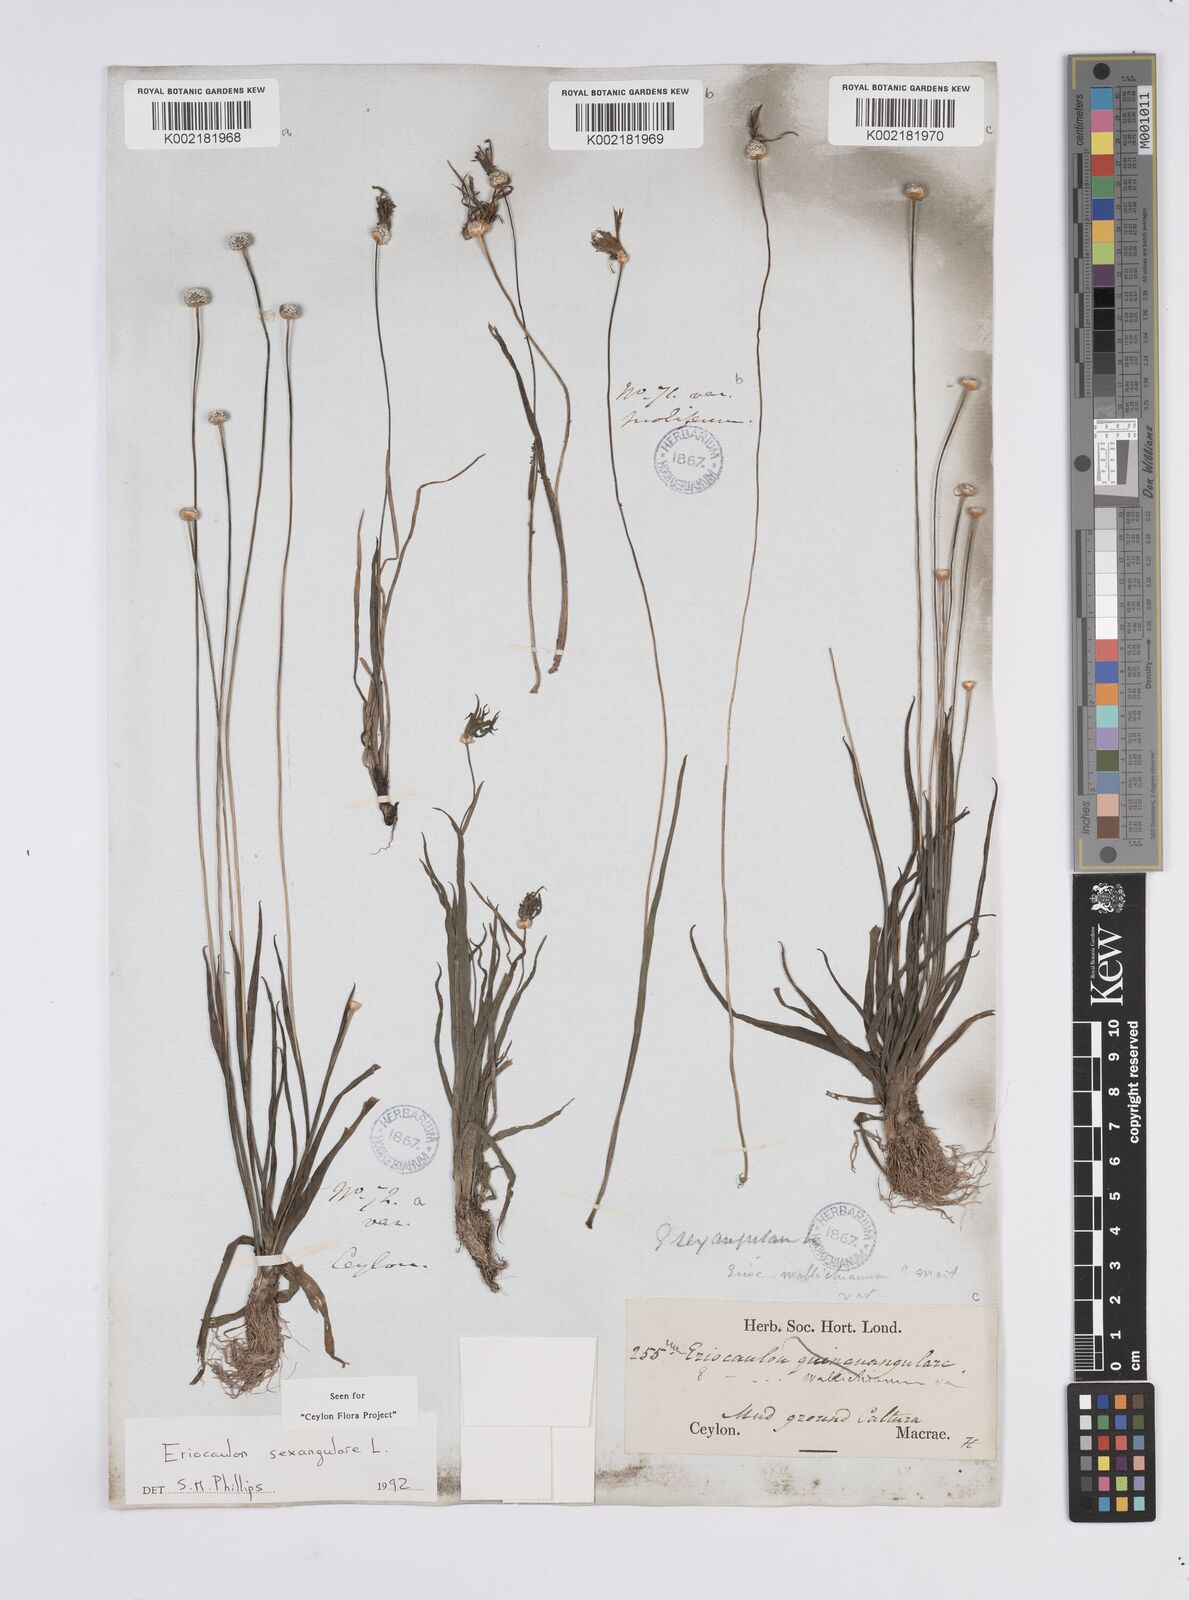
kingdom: Plantae
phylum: Tracheophyta
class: Liliopsida
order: Poales
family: Eriocaulaceae
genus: Eriocaulon
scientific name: Eriocaulon sexangulare
